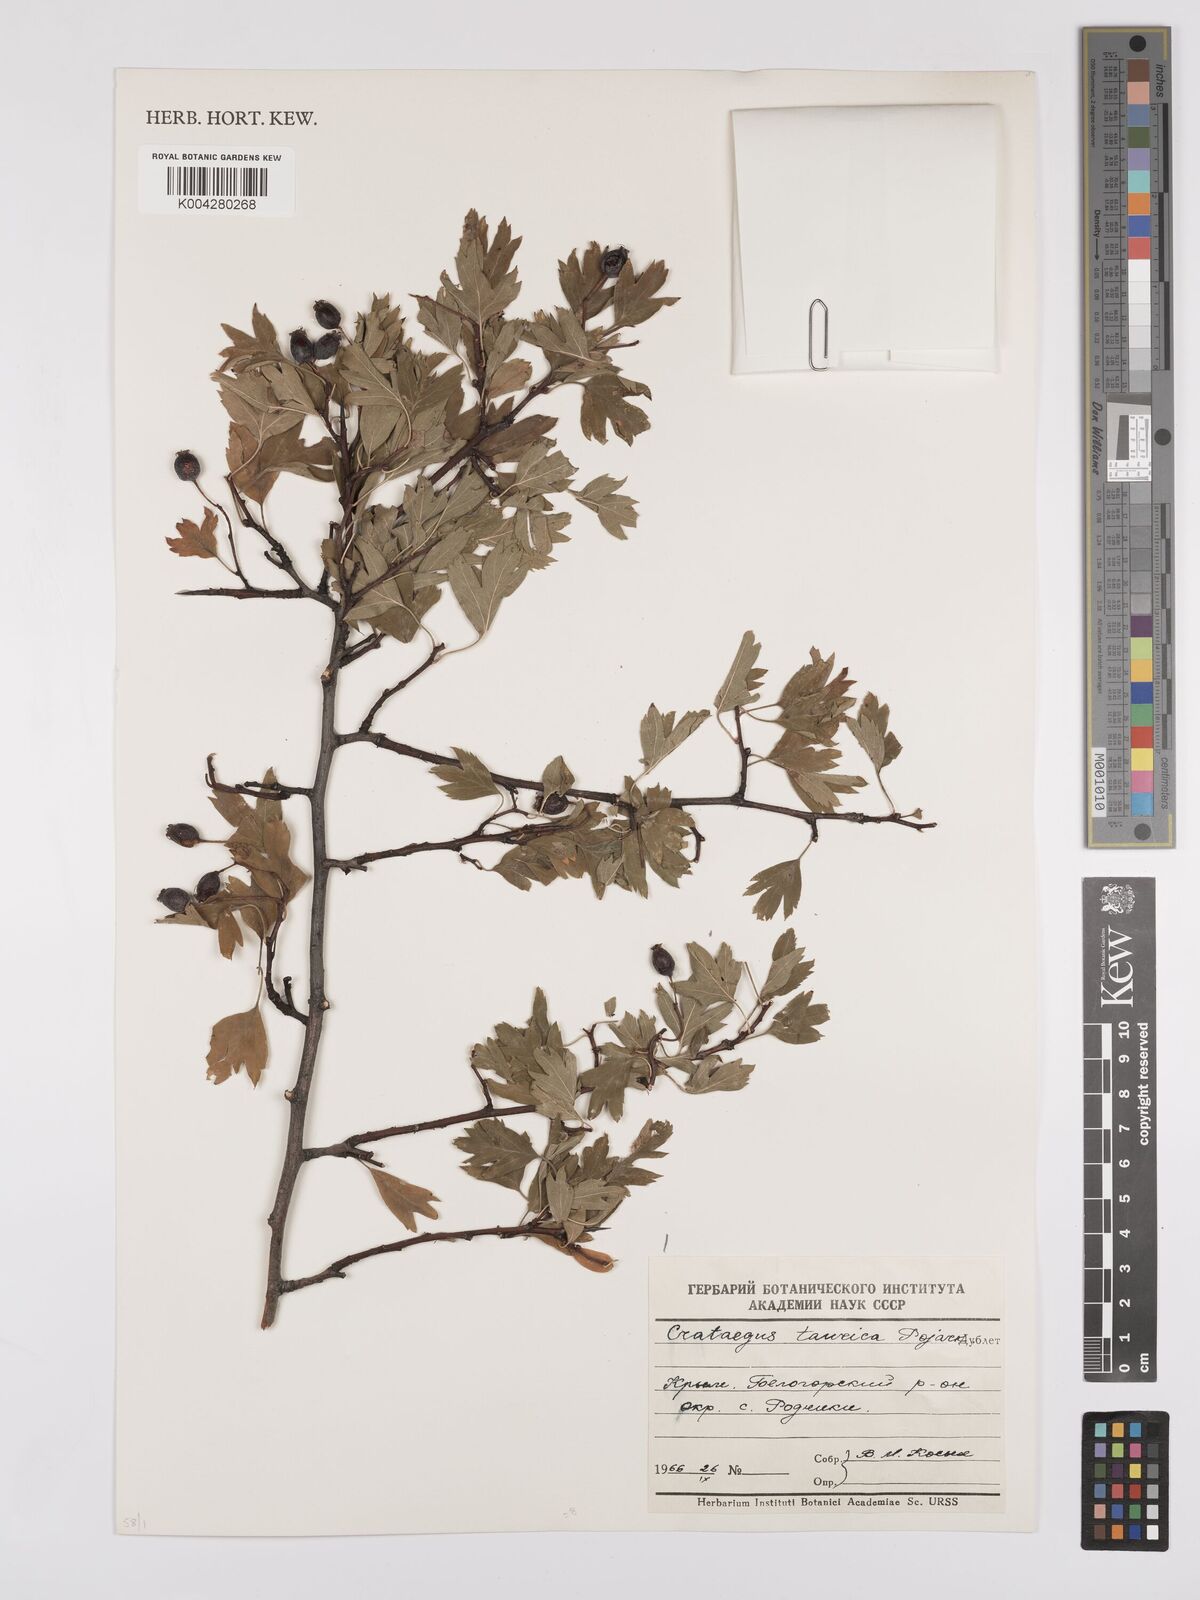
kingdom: Plantae
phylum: Tracheophyta
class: Magnoliopsida
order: Rosales
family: Rosaceae
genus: Crataegus
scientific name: Crataegus meyeri
